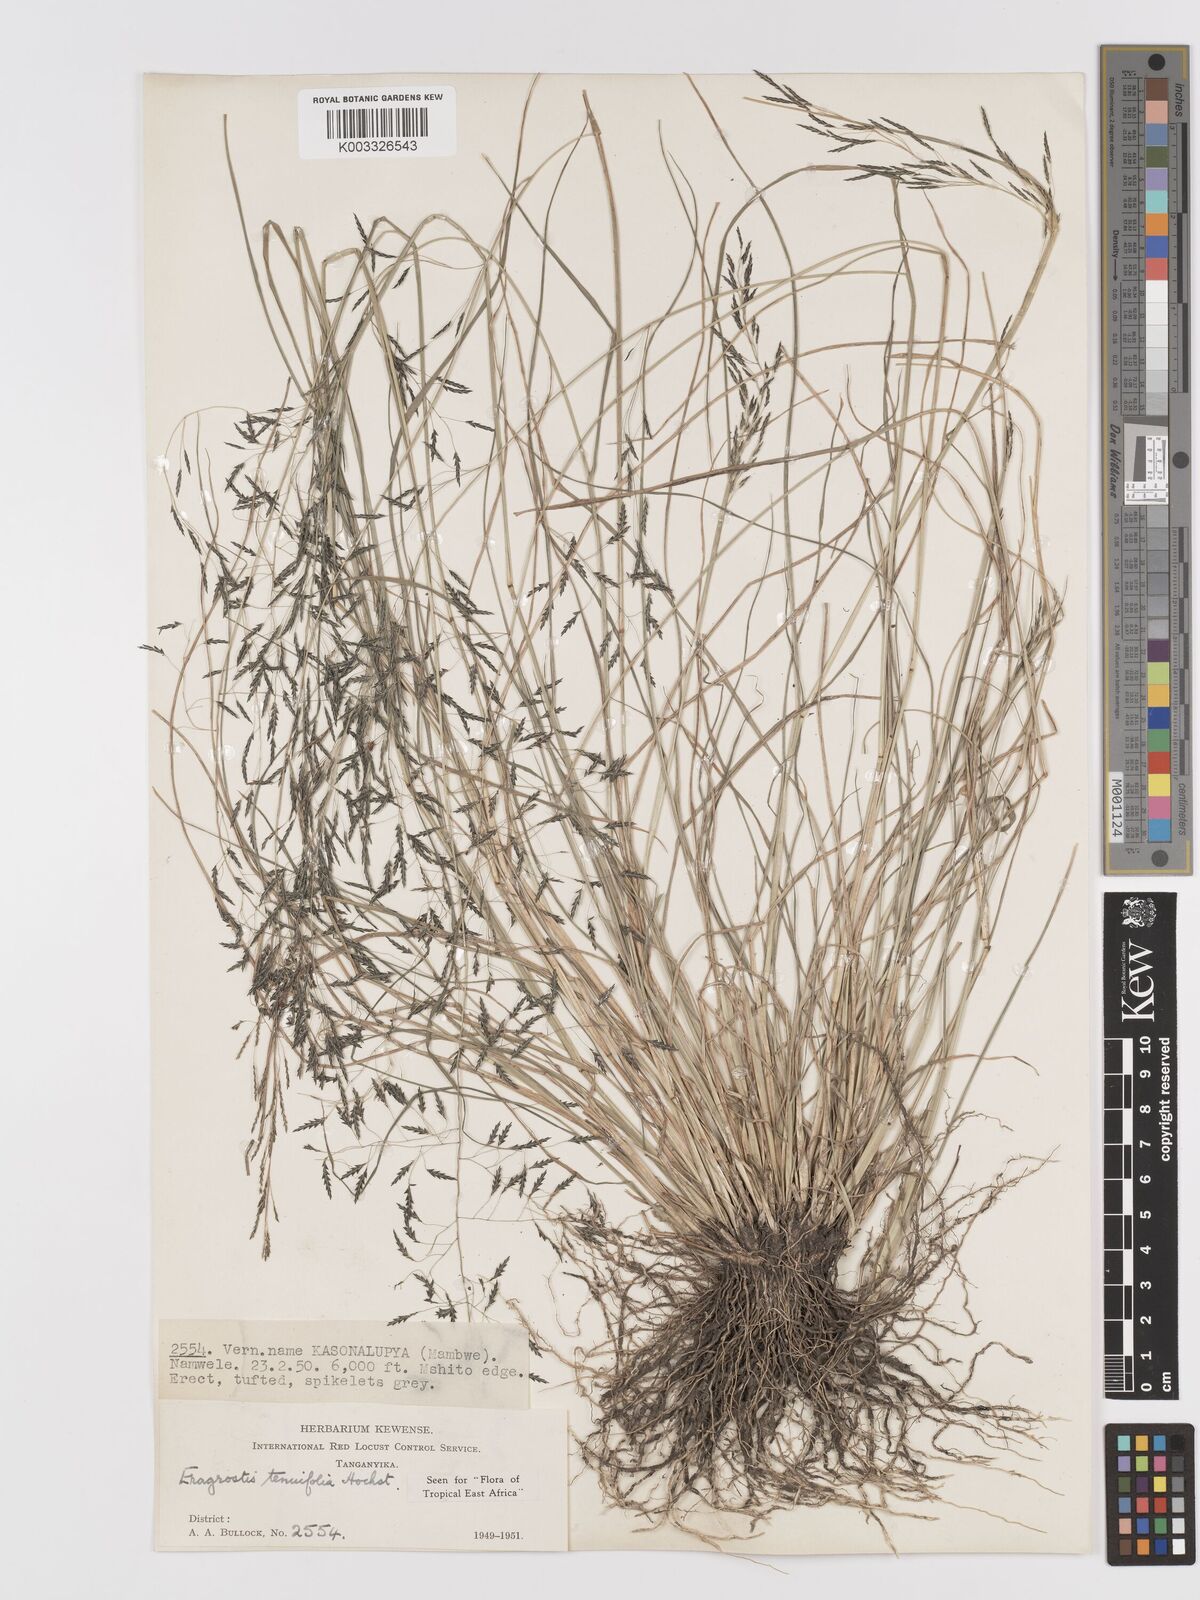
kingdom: Plantae
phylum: Tracheophyta
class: Liliopsida
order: Poales
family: Poaceae
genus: Eragrostis
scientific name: Eragrostis tenuifolia
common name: Elastic grass
